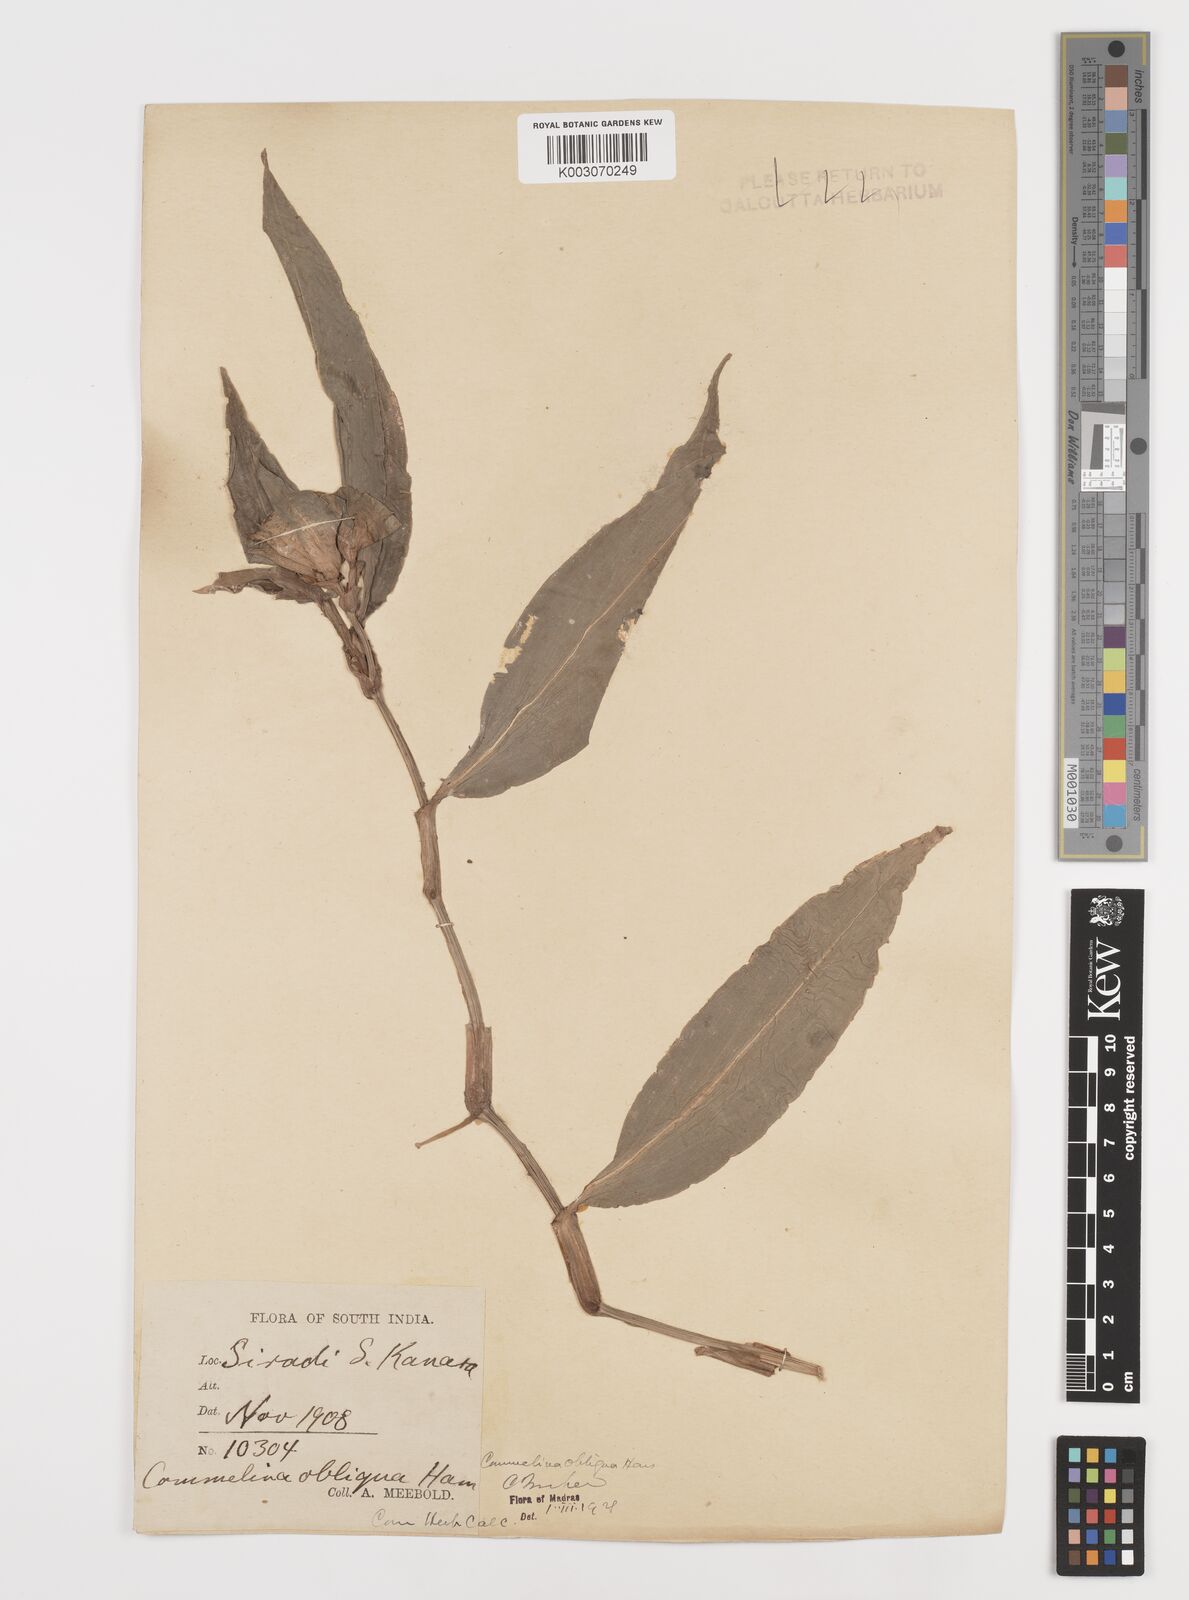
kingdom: Plantae
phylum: Tracheophyta
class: Liliopsida
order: Commelinales
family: Commelinaceae
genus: Commelina
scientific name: Commelina paludosa
